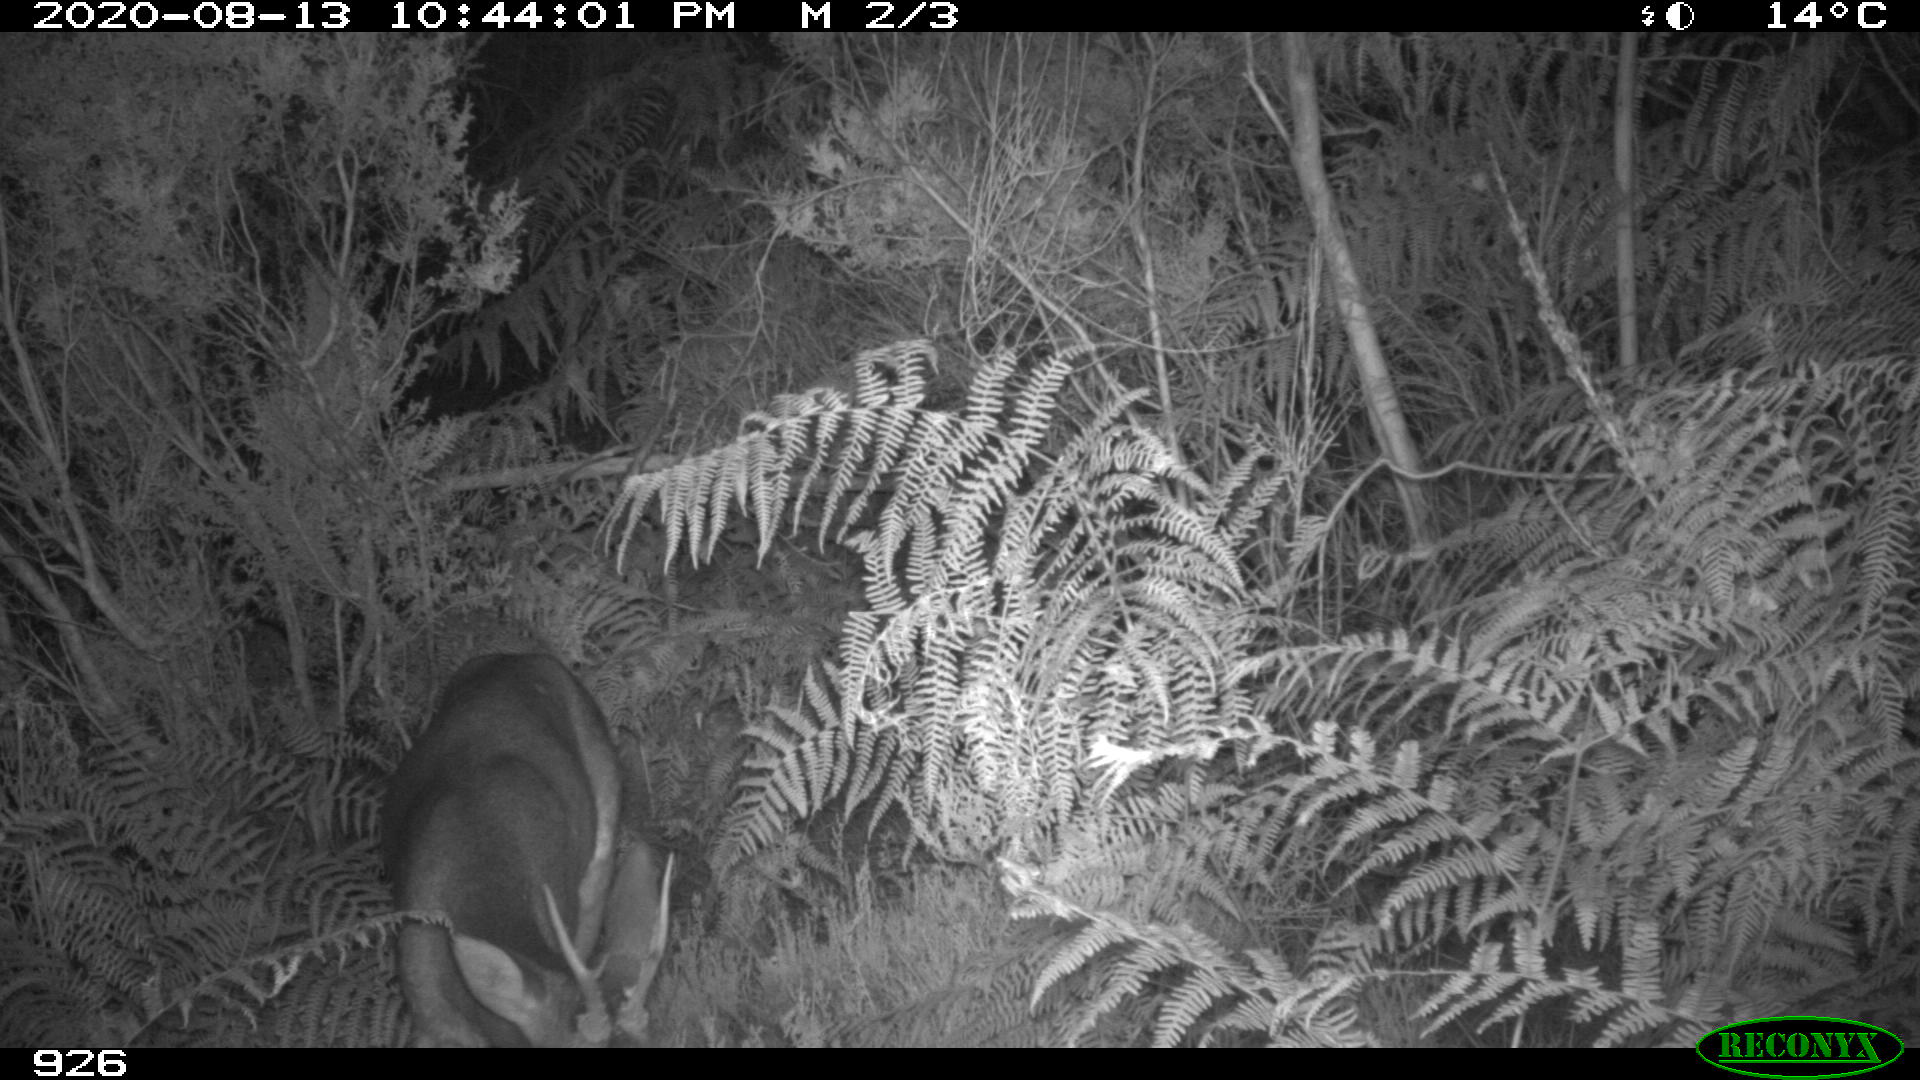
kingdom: Animalia
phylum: Chordata
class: Mammalia
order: Artiodactyla
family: Cervidae
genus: Capreolus
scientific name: Capreolus capreolus
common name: Western roe deer
